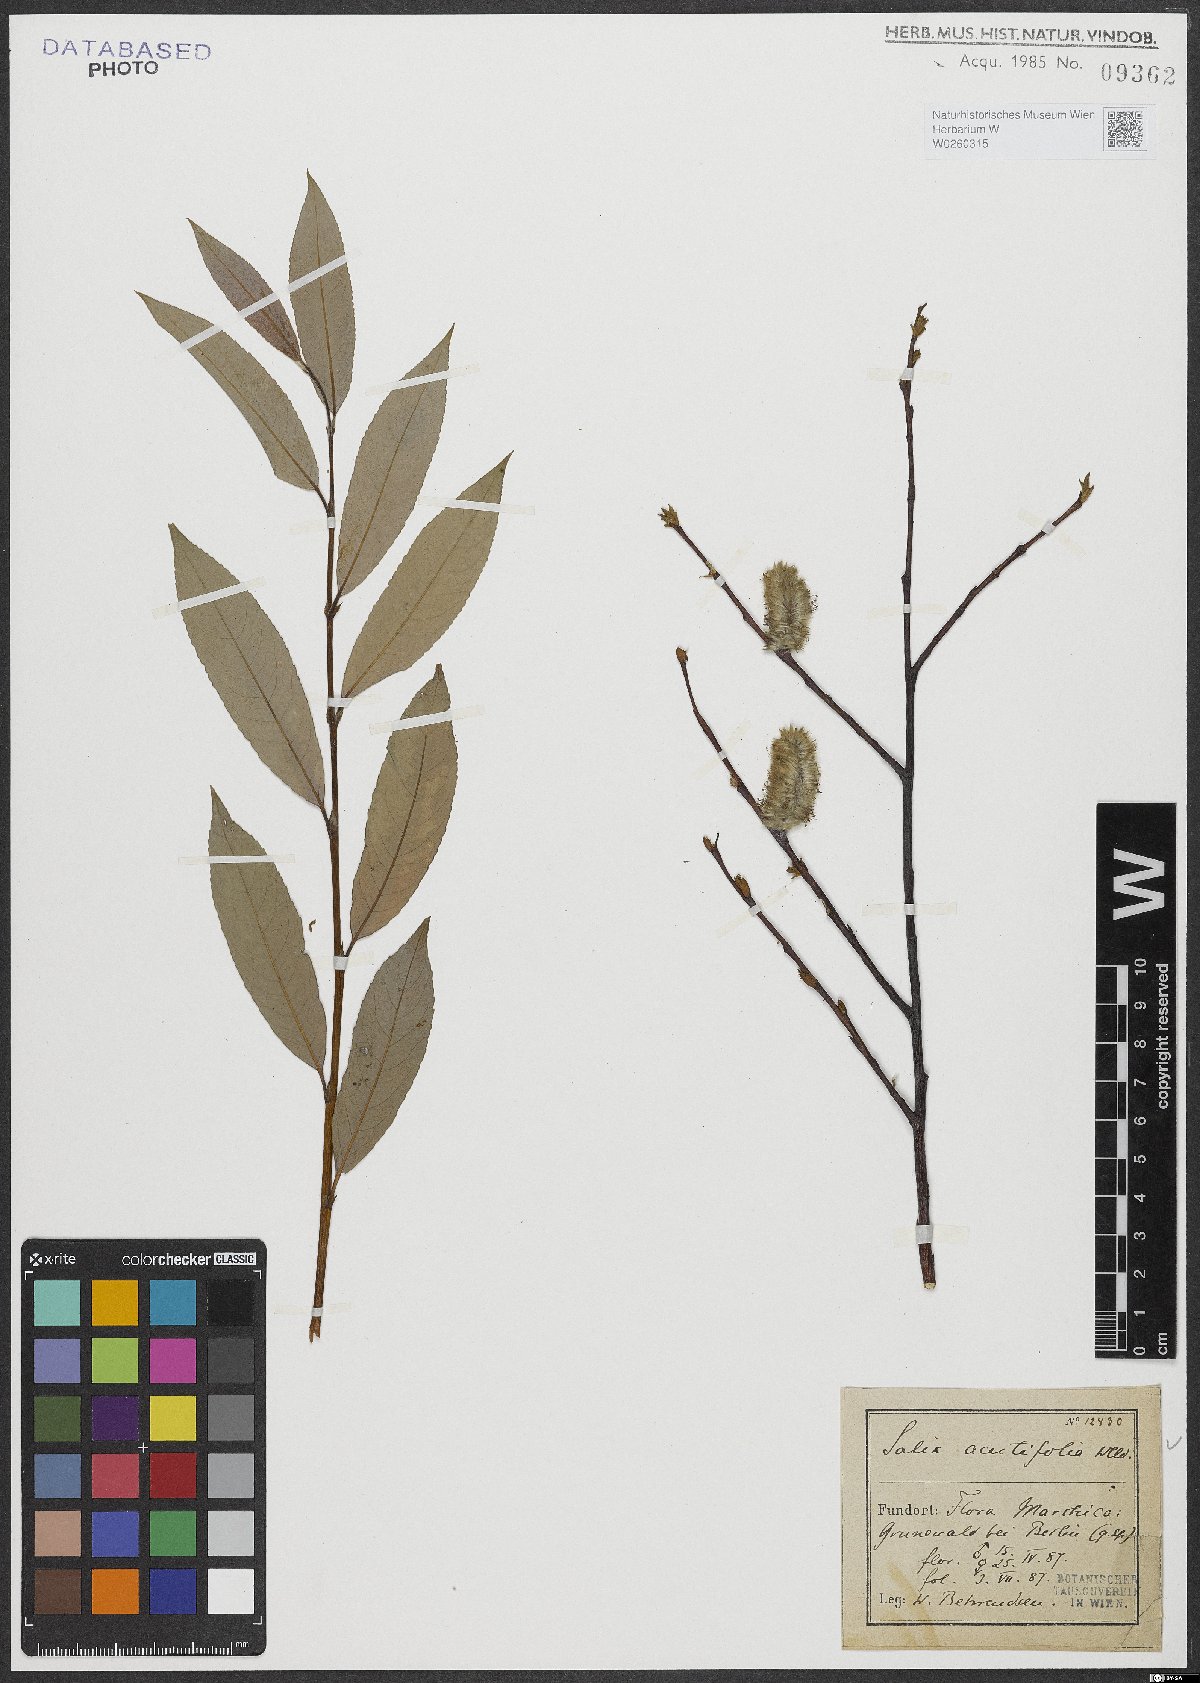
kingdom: Plantae
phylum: Tracheophyta
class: Magnoliopsida
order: Malpighiales
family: Salicaceae
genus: Salix
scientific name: Salix acutifolia
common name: Siberian violet-willow
